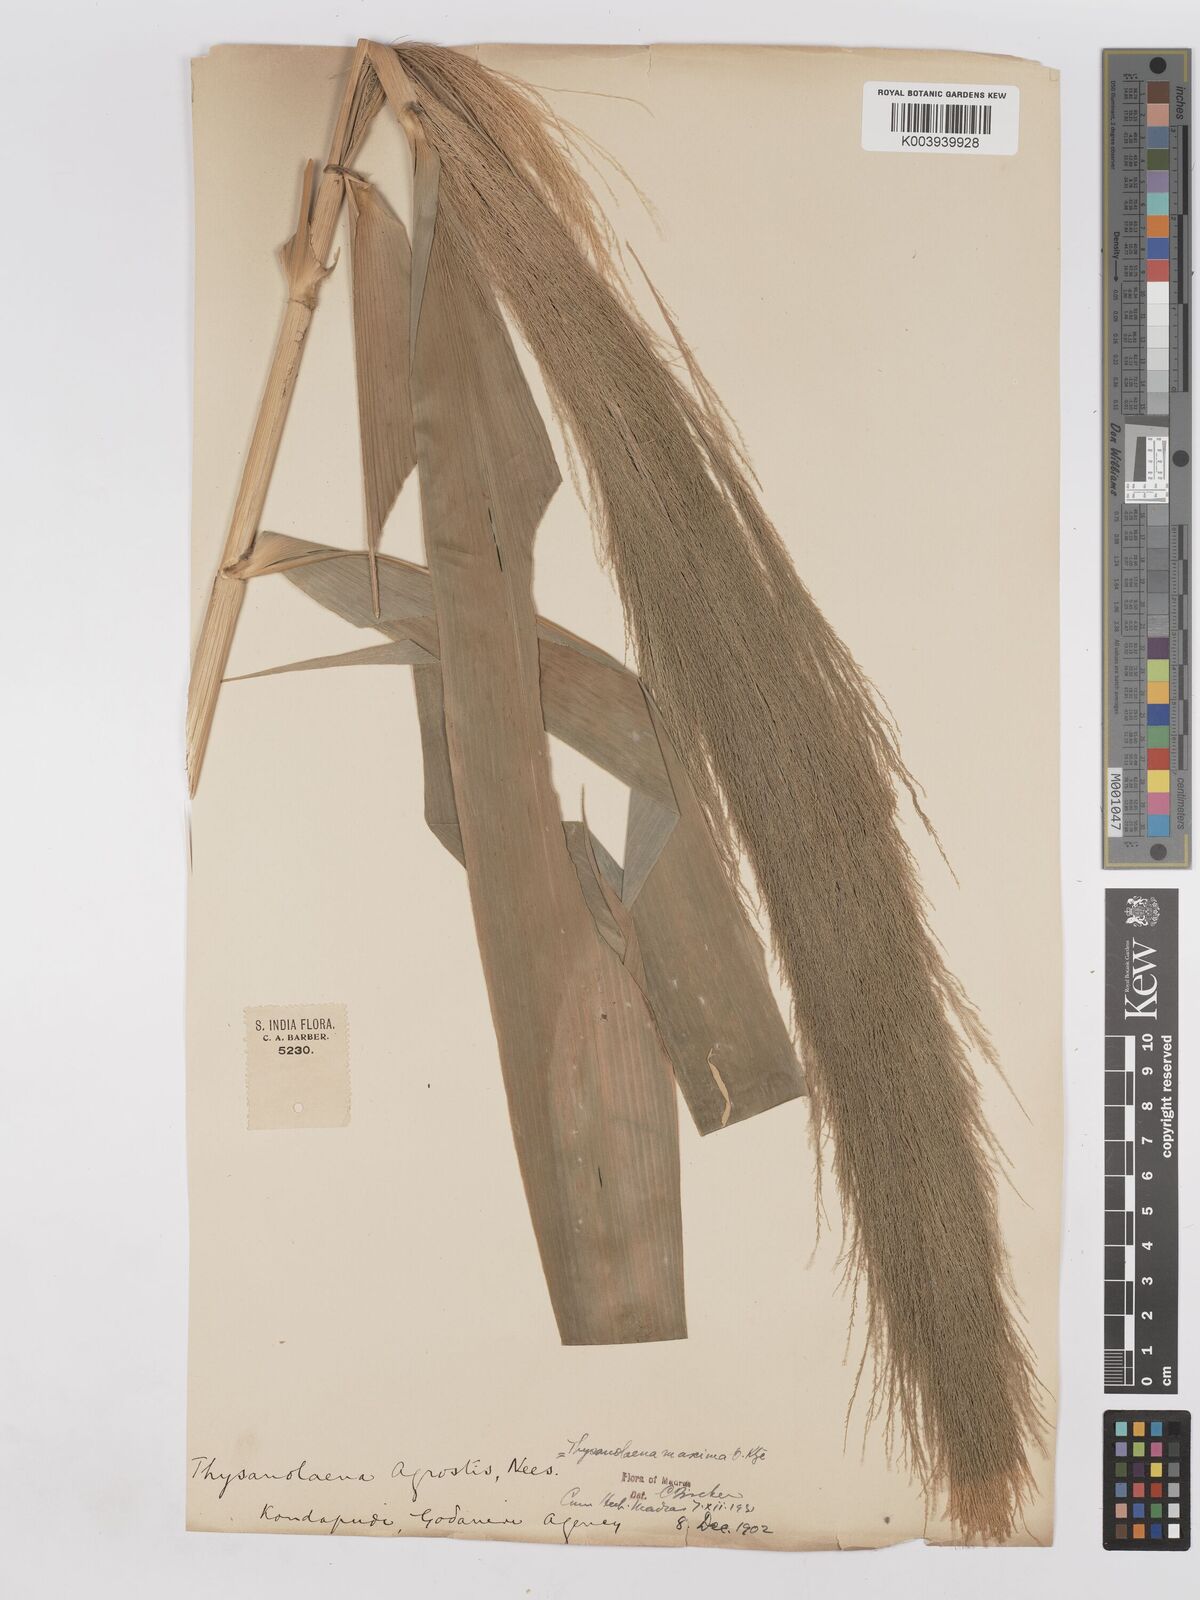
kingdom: Plantae
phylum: Tracheophyta
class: Liliopsida
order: Poales
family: Poaceae
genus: Thysanolaena
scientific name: Thysanolaena latifolia
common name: Tiger grass
